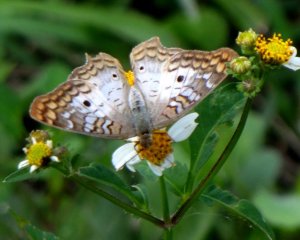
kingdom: Animalia
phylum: Arthropoda
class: Insecta
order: Lepidoptera
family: Nymphalidae
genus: Anartia
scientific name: Anartia jatrophae
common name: White Peacock
